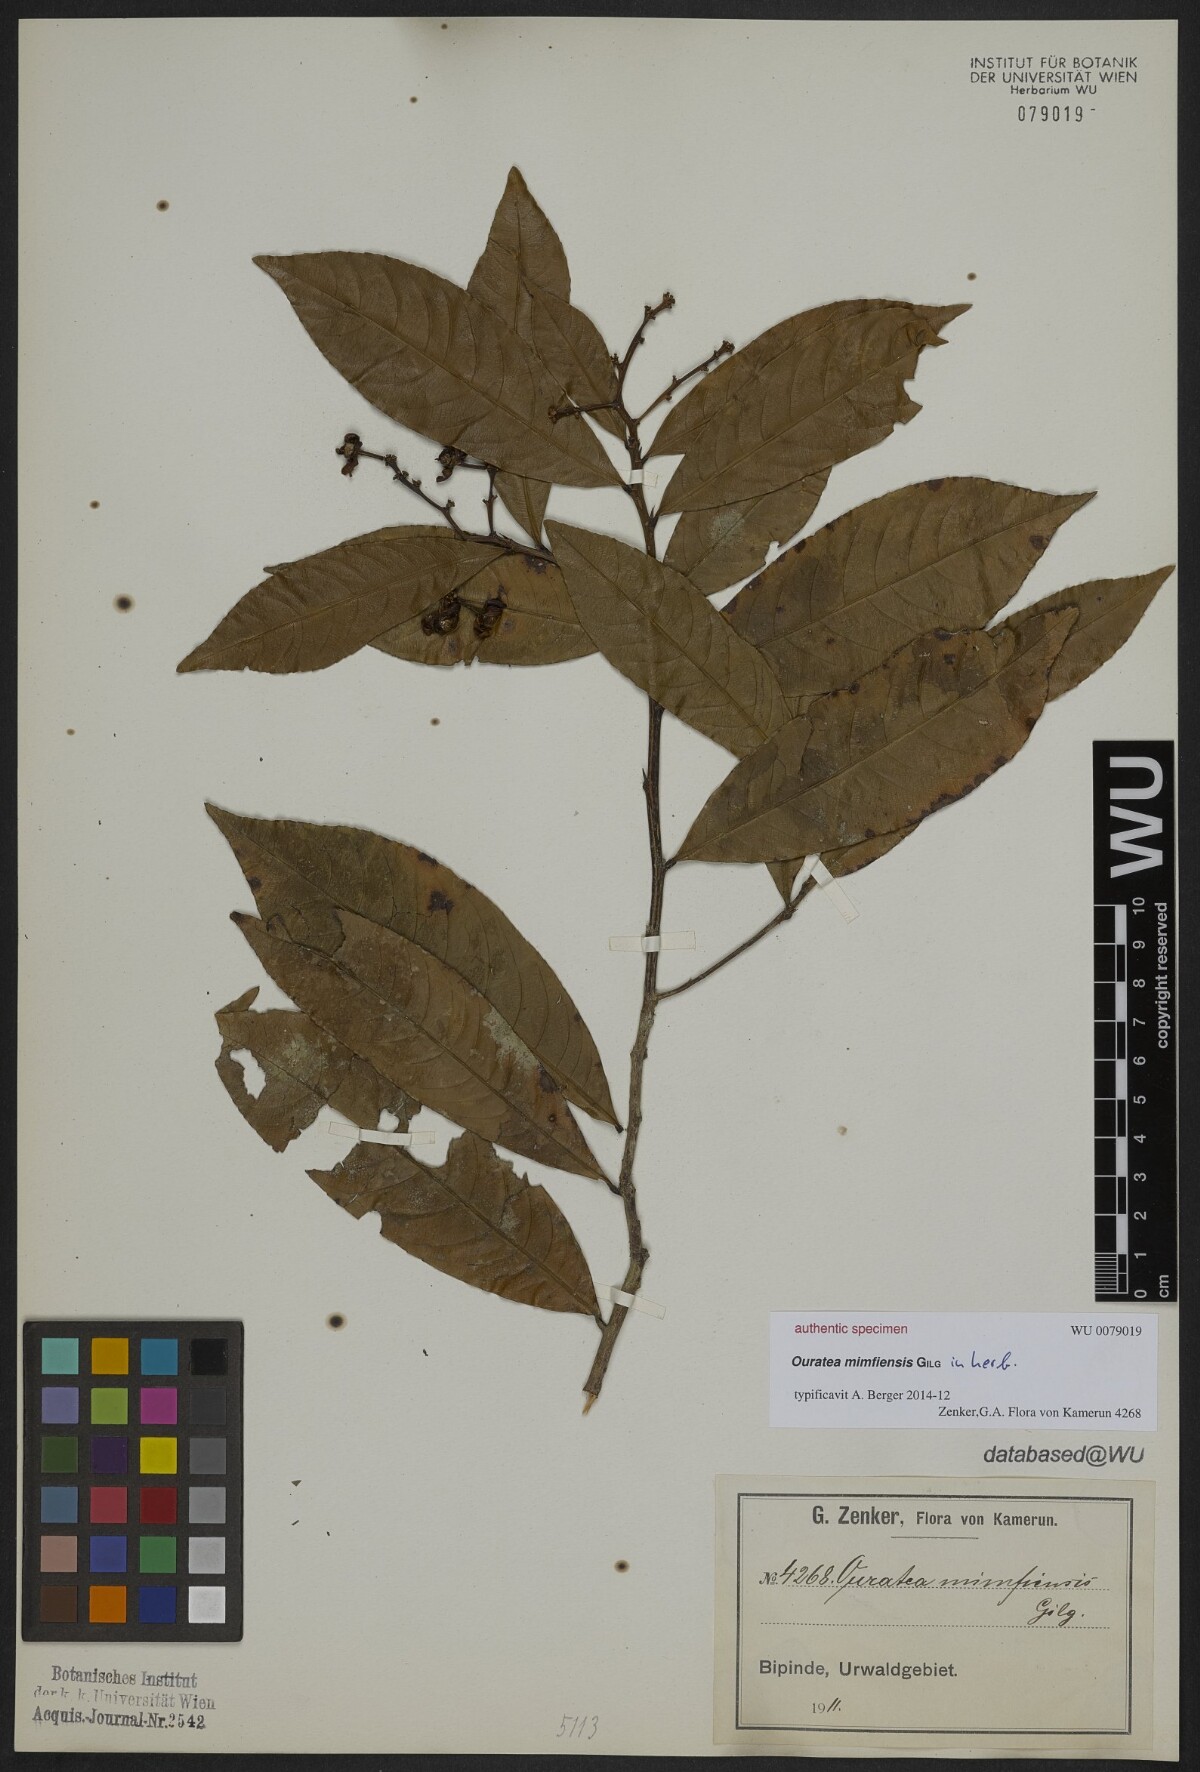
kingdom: Plantae
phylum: Tracheophyta
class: Magnoliopsida
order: Malpighiales
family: Ochnaceae
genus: Ouratea
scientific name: Ouratea
